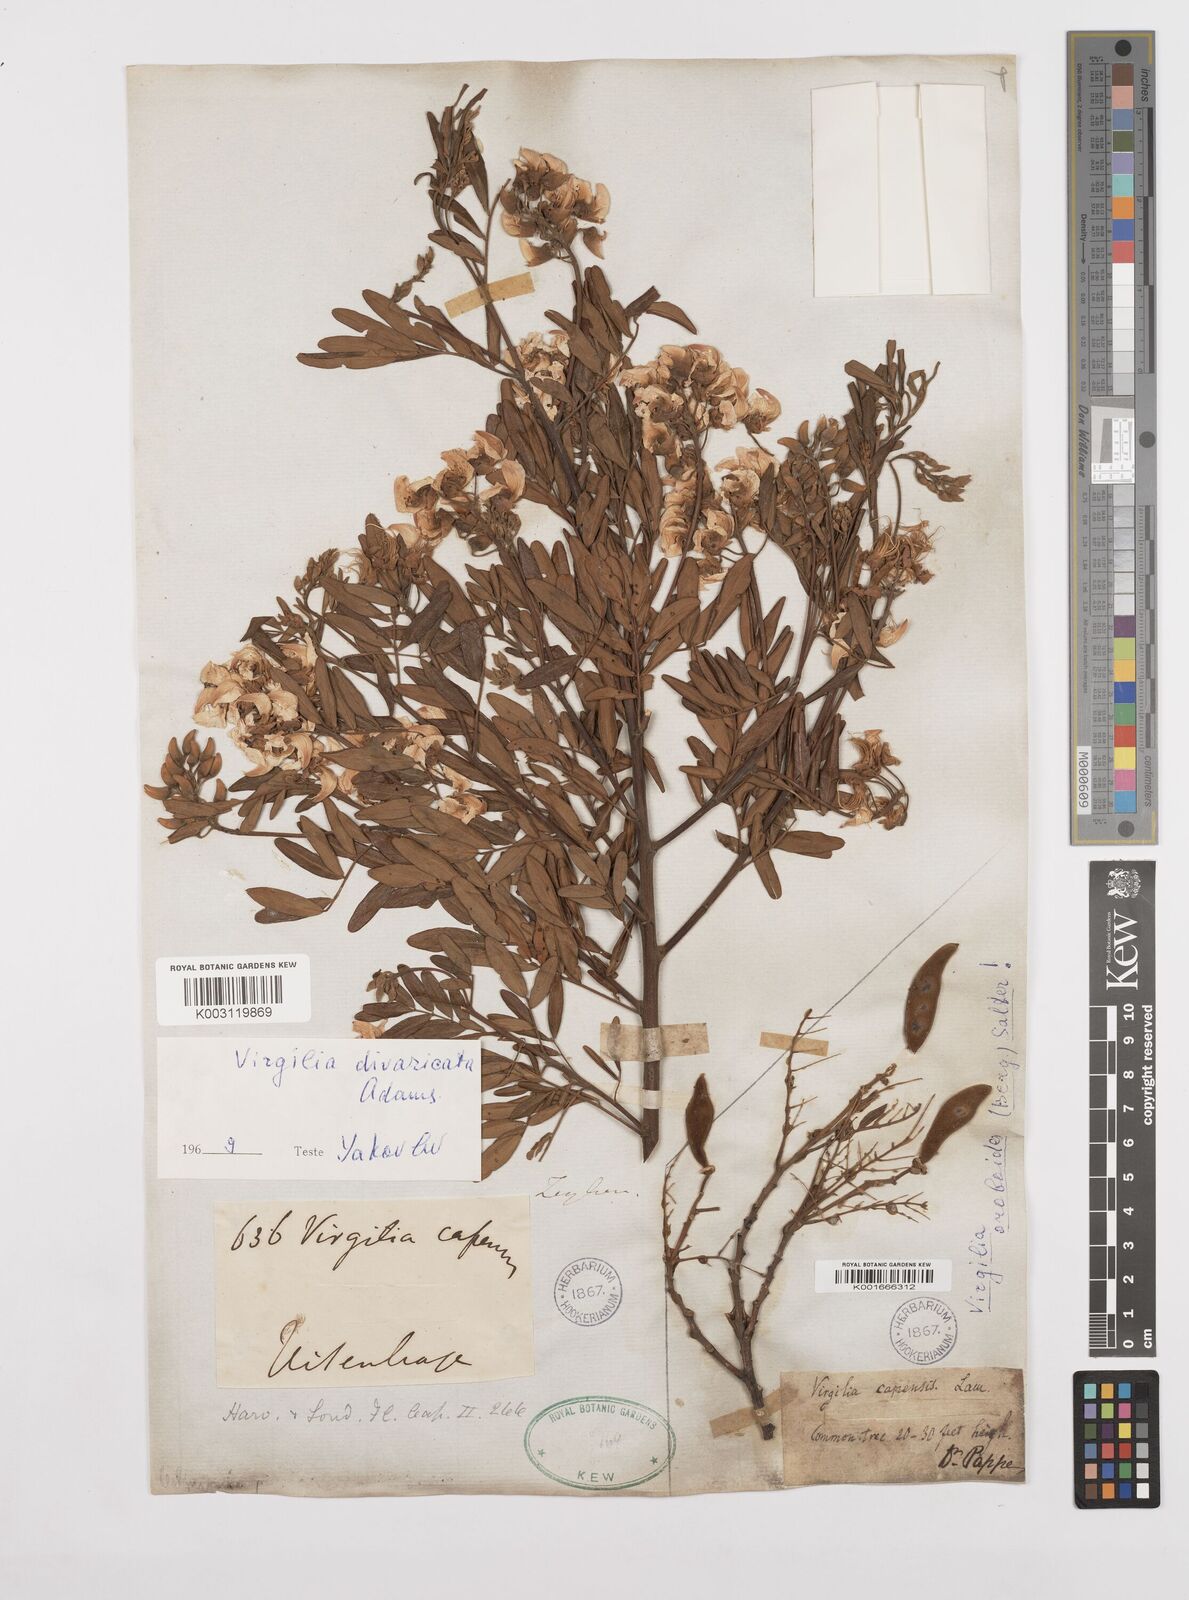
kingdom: Plantae
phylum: Tracheophyta
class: Magnoliopsida
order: Fabales
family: Fabaceae
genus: Virgilia
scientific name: Virgilia divaricata
